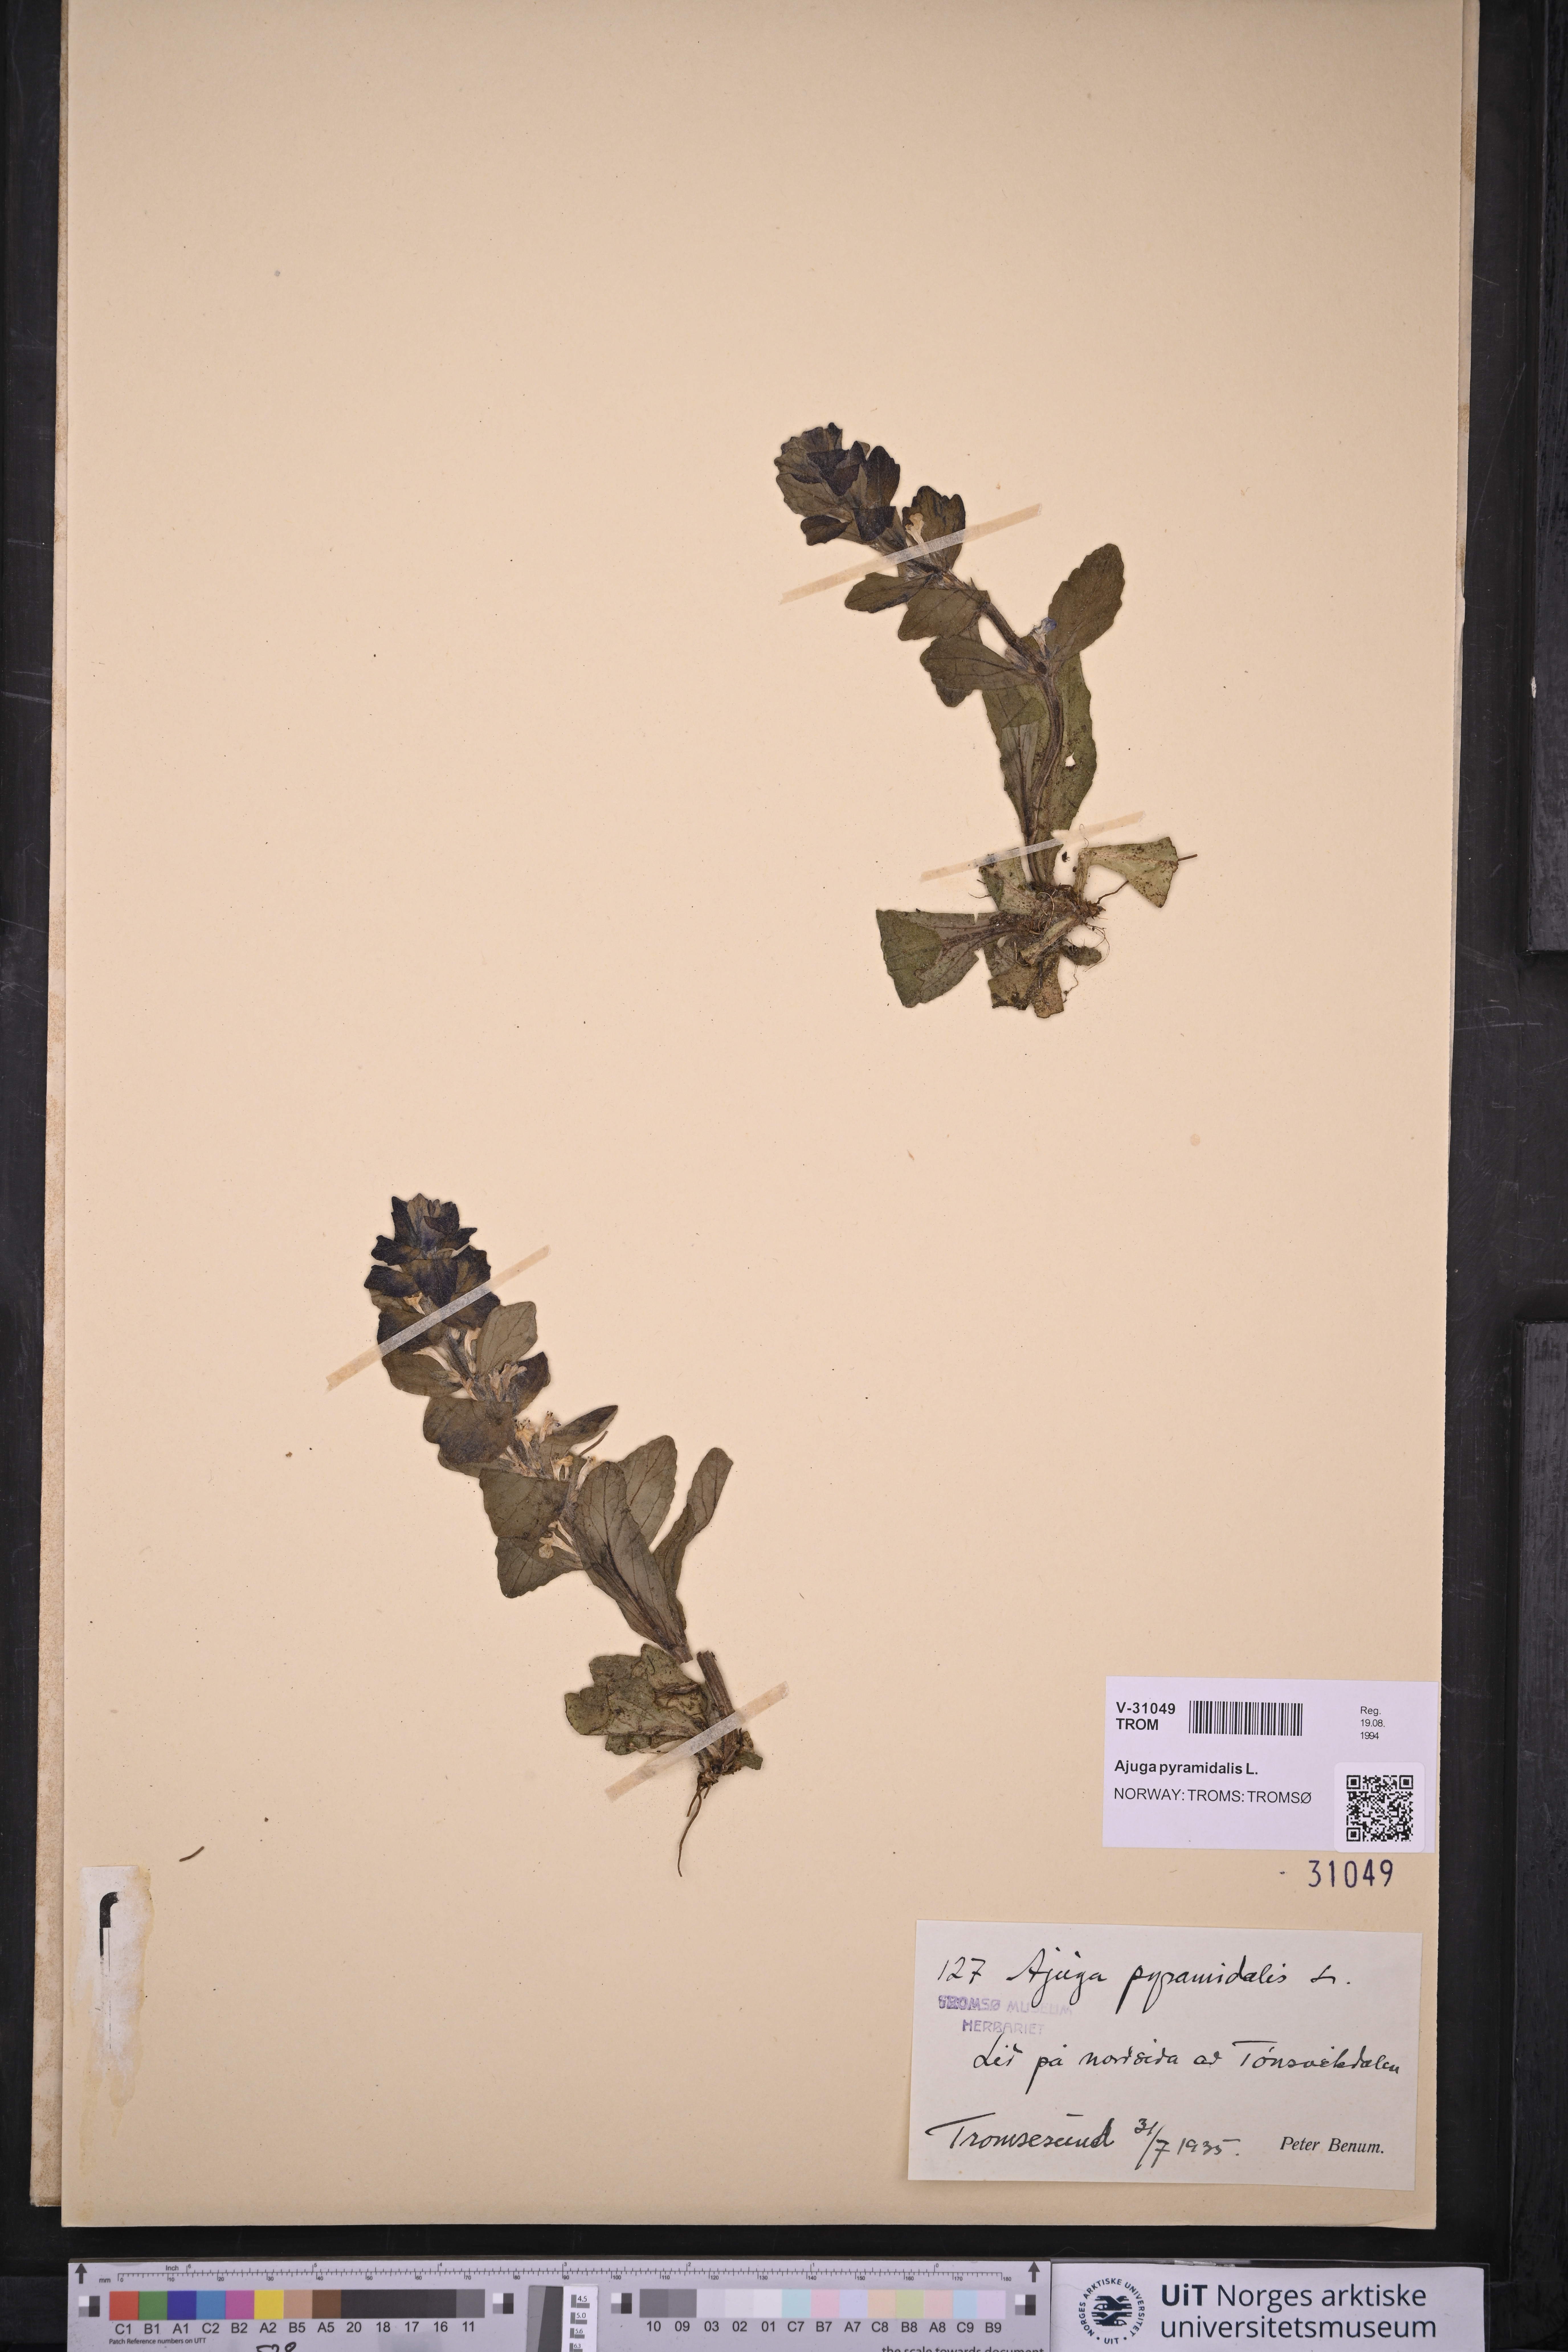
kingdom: Plantae
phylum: Tracheophyta
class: Magnoliopsida
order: Lamiales
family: Lamiaceae
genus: Ajuga
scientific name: Ajuga pyramidalis
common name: Pyramid bugle
